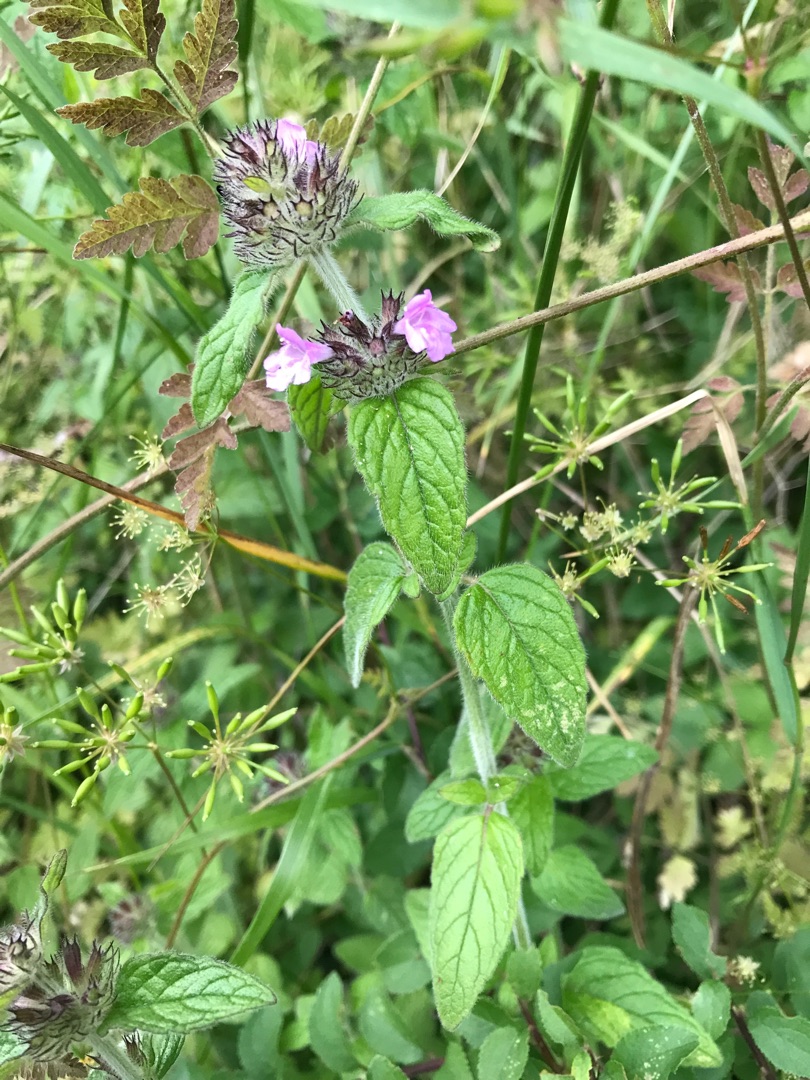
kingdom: Plantae
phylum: Tracheophyta
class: Magnoliopsida
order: Lamiales
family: Lamiaceae
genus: Clinopodium
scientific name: Clinopodium vulgare
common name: Kransbørste
